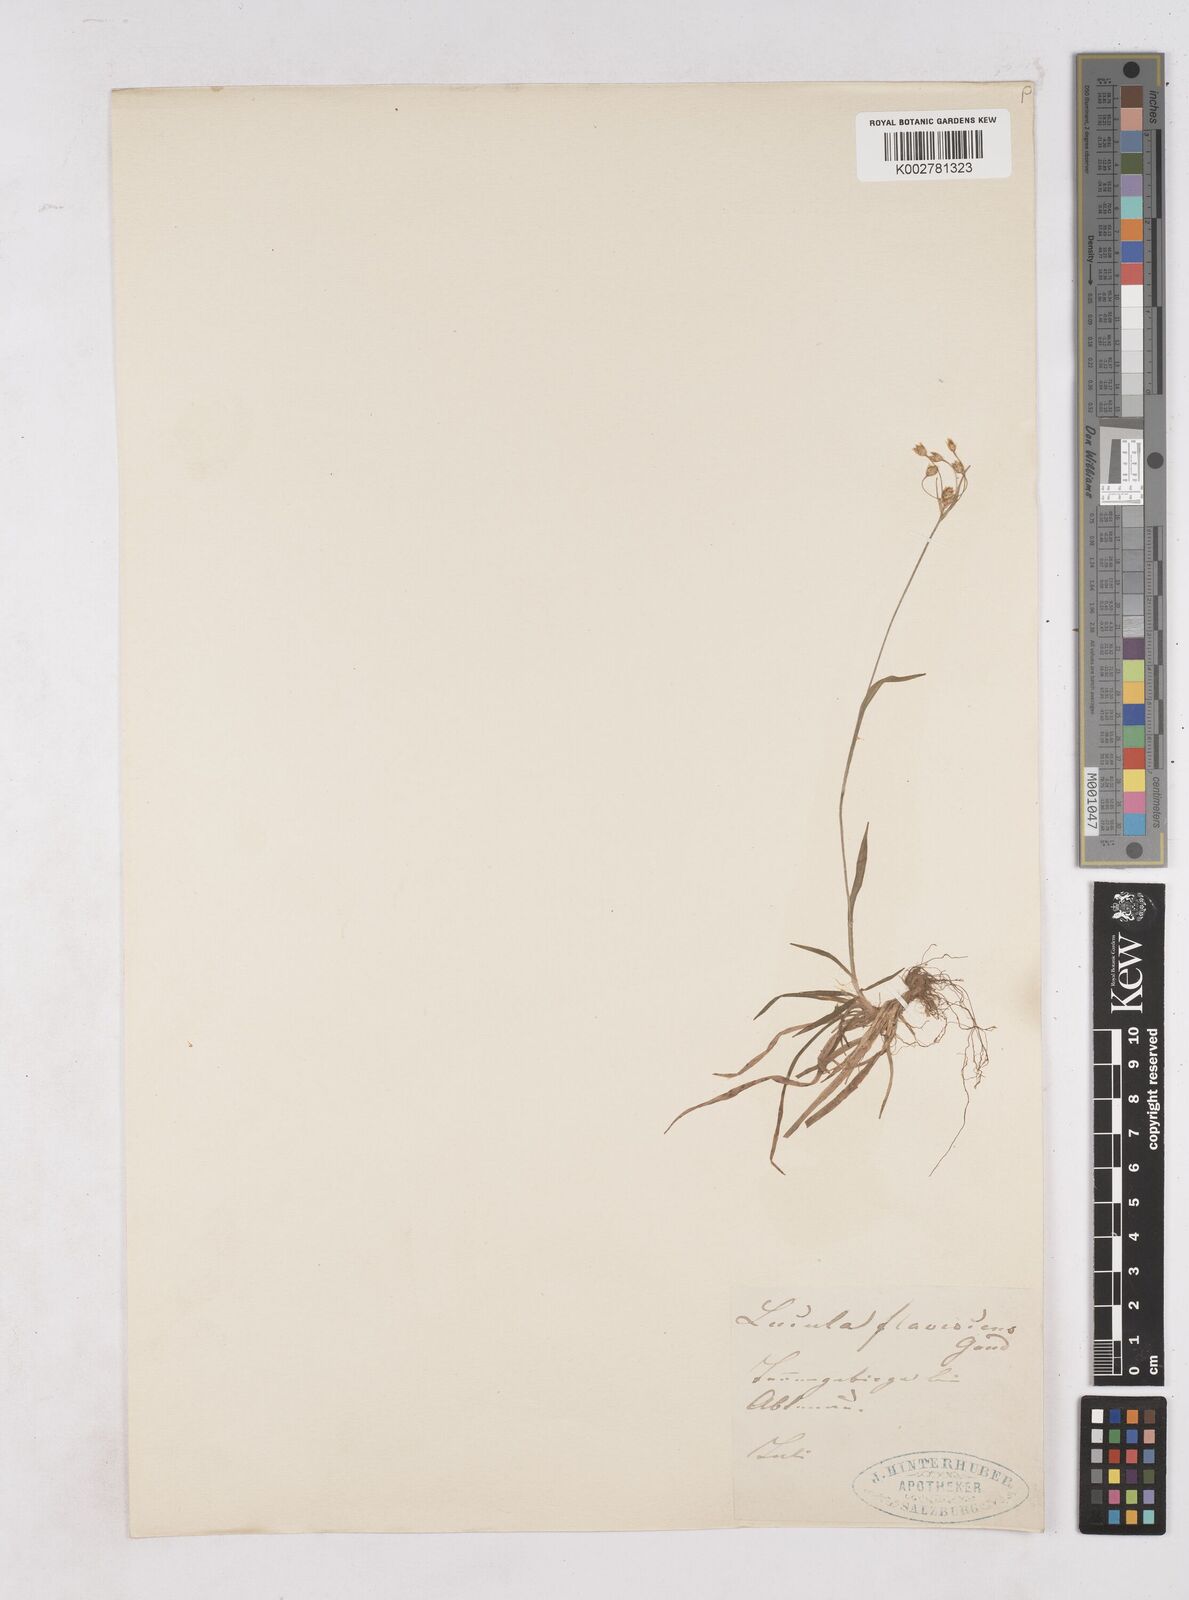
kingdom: Plantae
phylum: Tracheophyta
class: Liliopsida
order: Poales
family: Juncaceae
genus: Luzula
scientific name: Luzula luzulina
